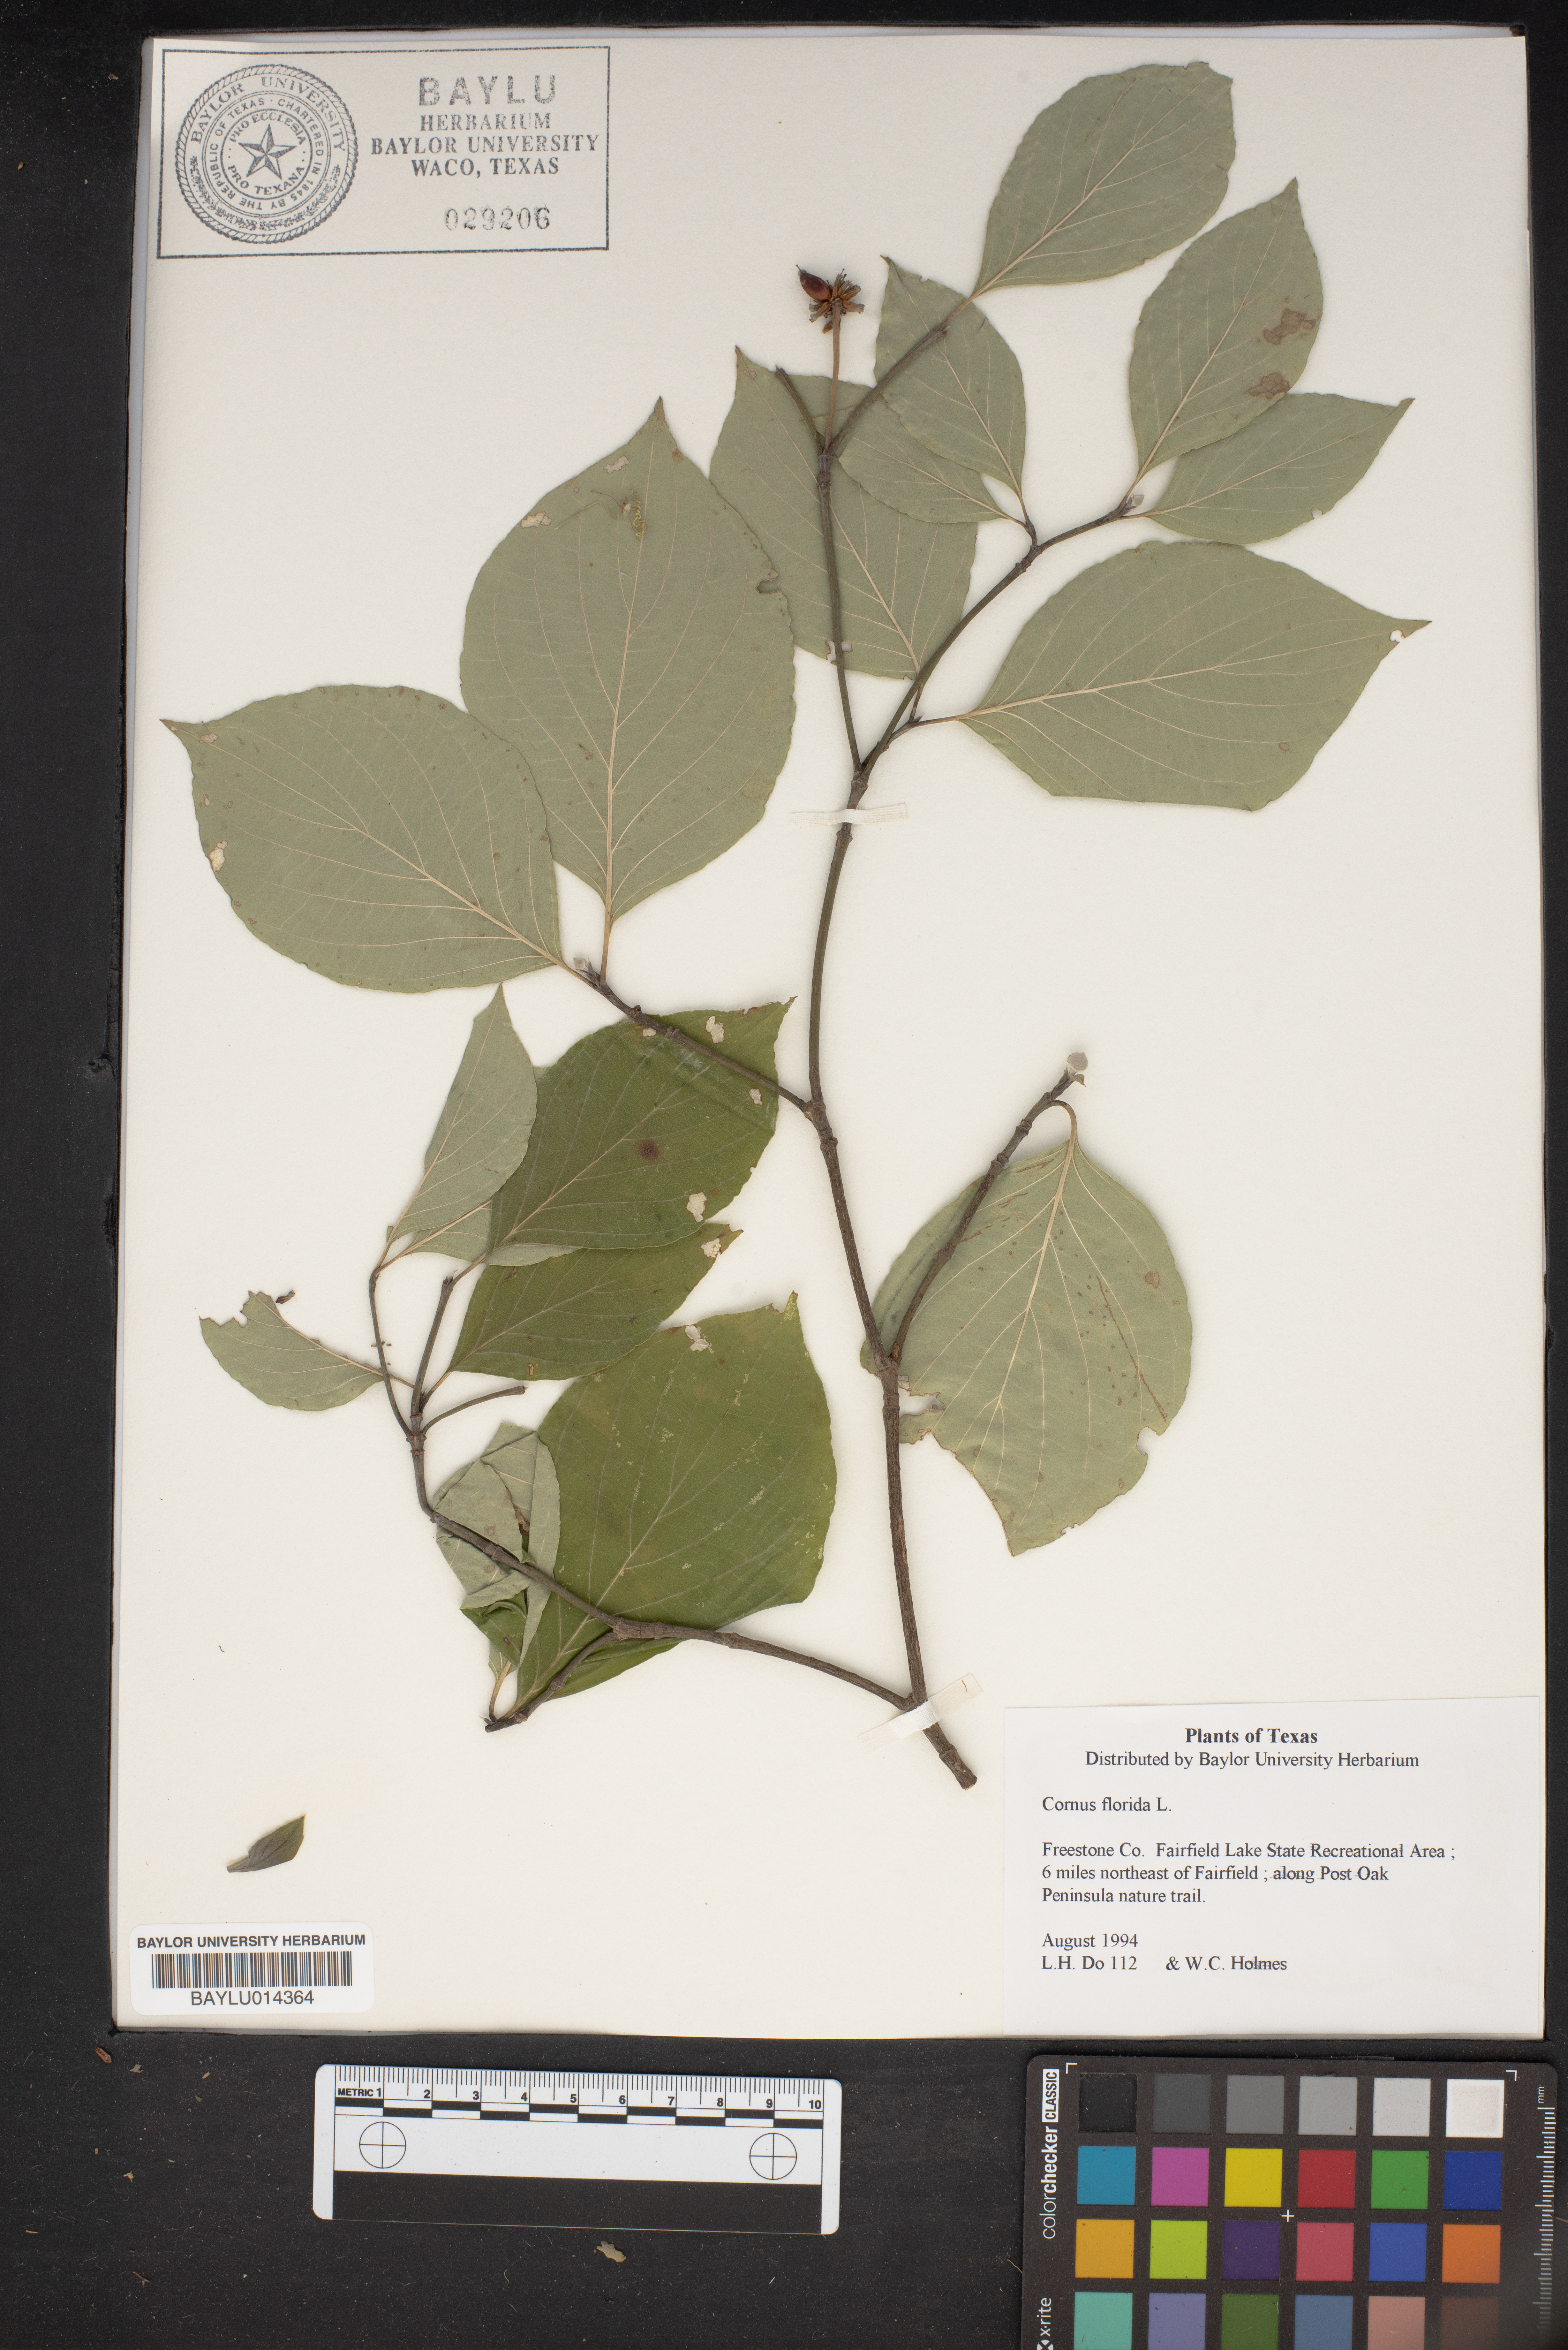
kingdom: Plantae
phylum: Tracheophyta
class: Magnoliopsida
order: Cornales
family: Cornaceae
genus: Cornus
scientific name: Cornus florida
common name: Flowering dogwood
